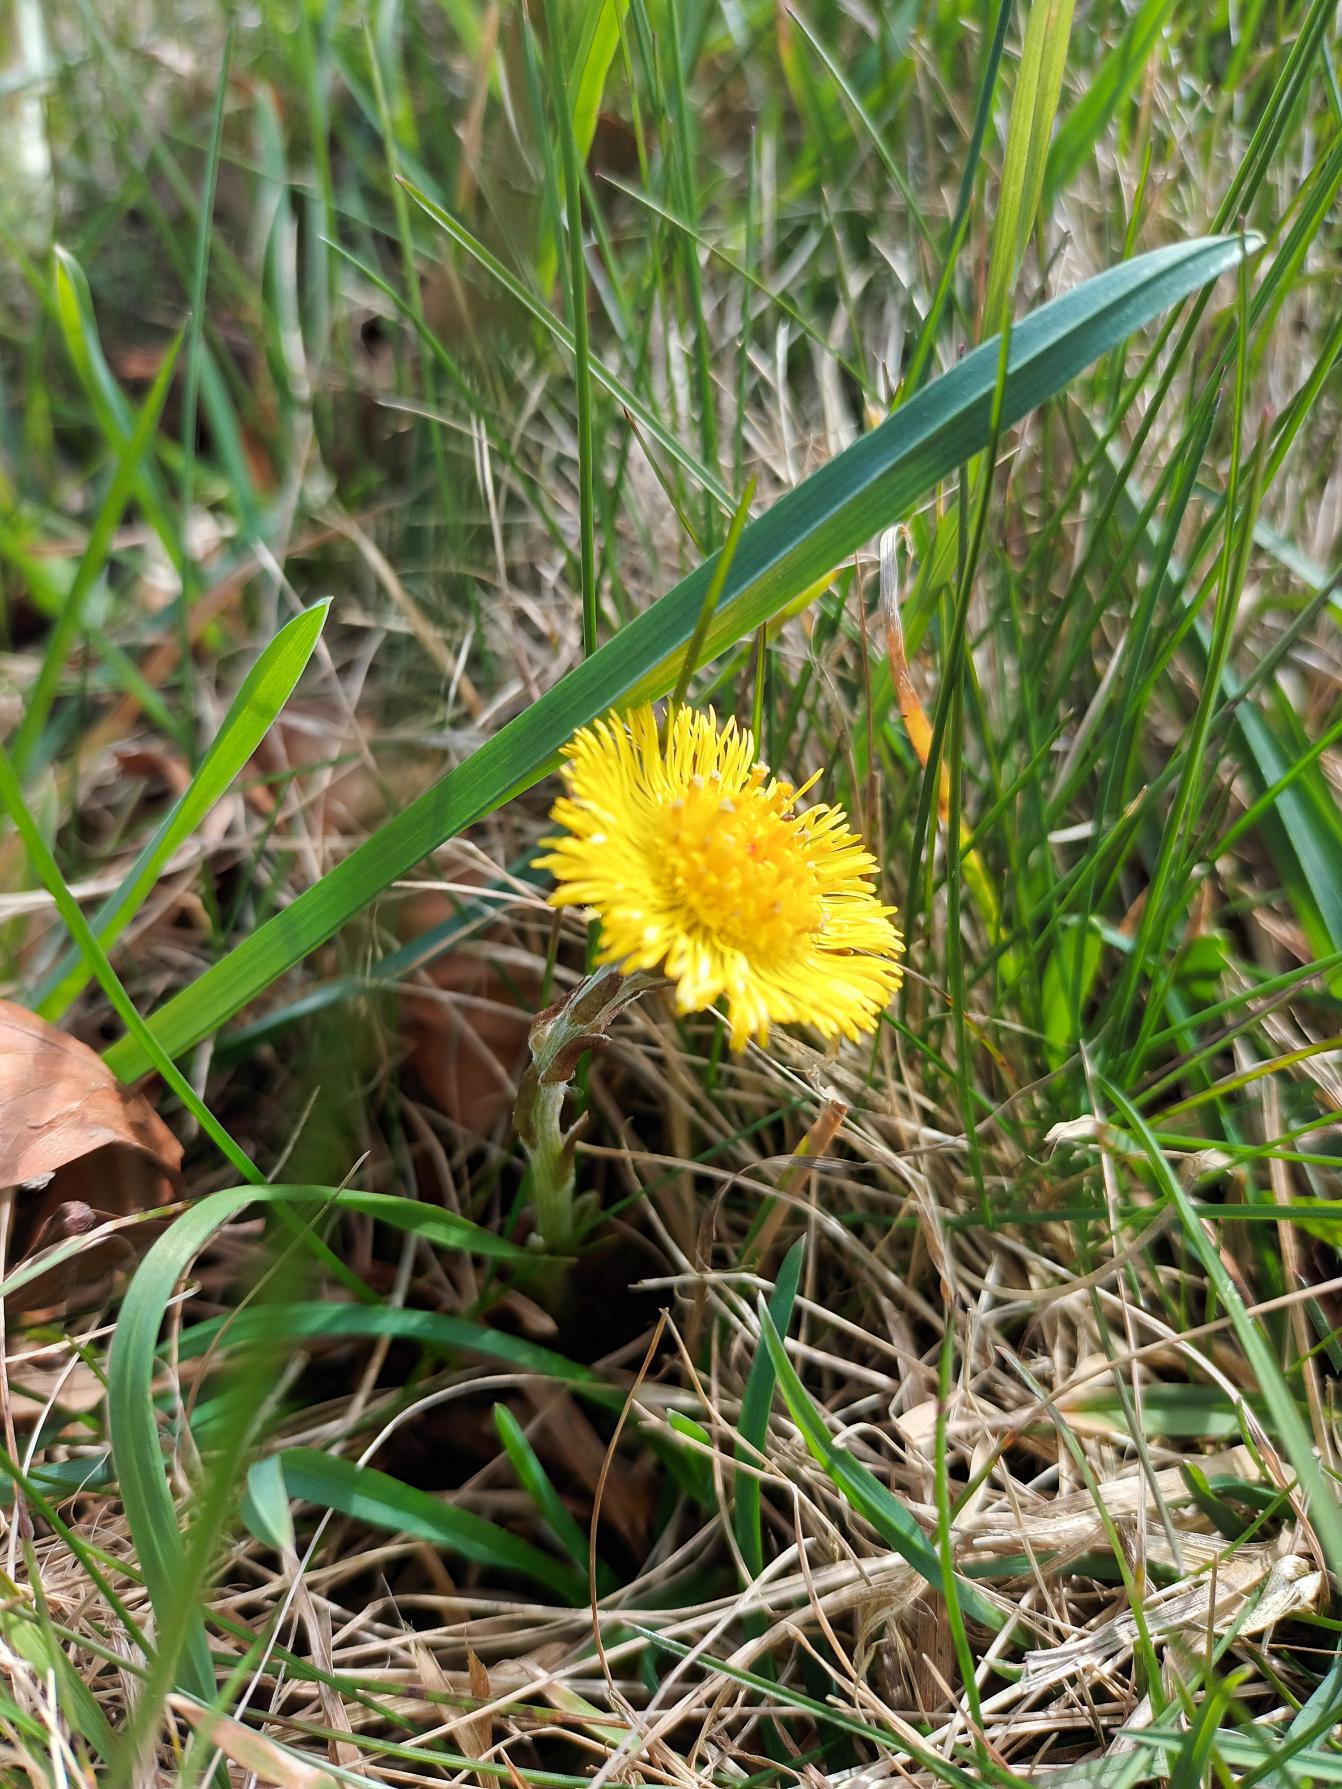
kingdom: Plantae
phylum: Tracheophyta
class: Magnoliopsida
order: Asterales
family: Asteraceae
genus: Tussilago
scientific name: Tussilago farfara
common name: Følfod
